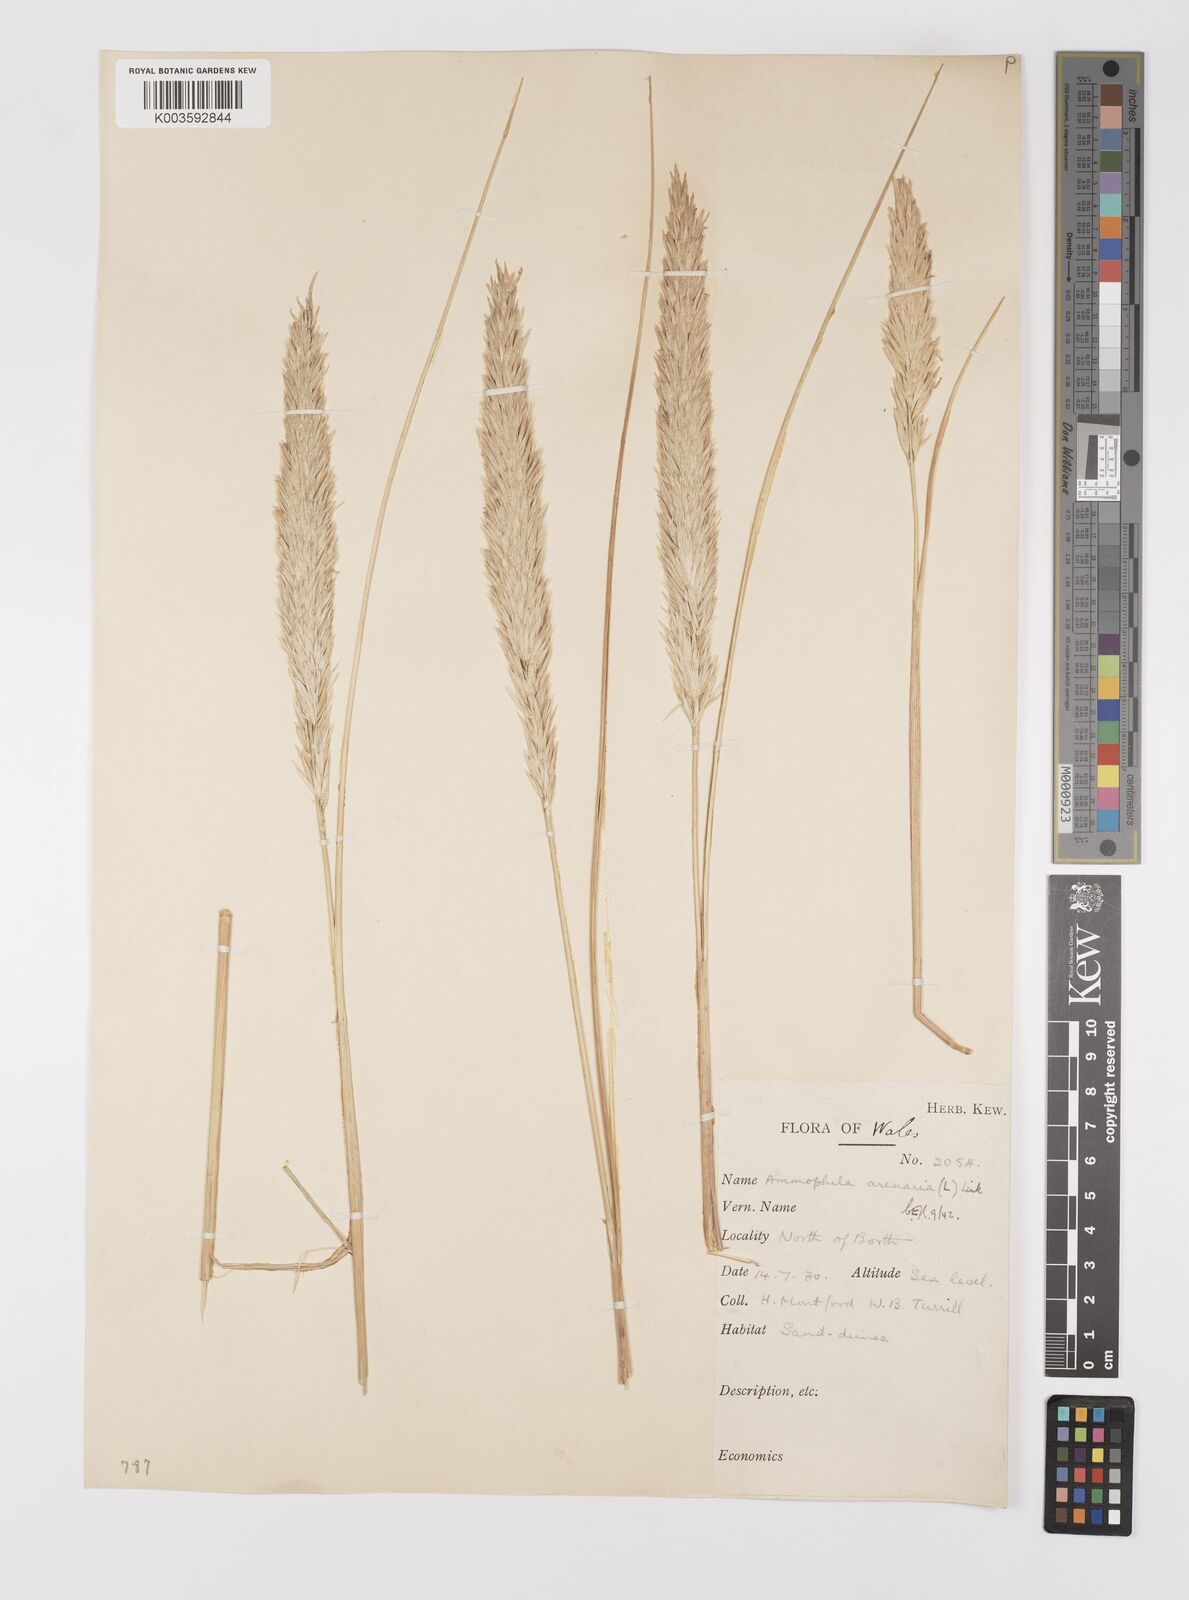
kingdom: Plantae
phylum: Tracheophyta
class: Liliopsida
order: Poales
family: Poaceae
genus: Calamagrostis
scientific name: Calamagrostis arenaria
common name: European beachgrass
